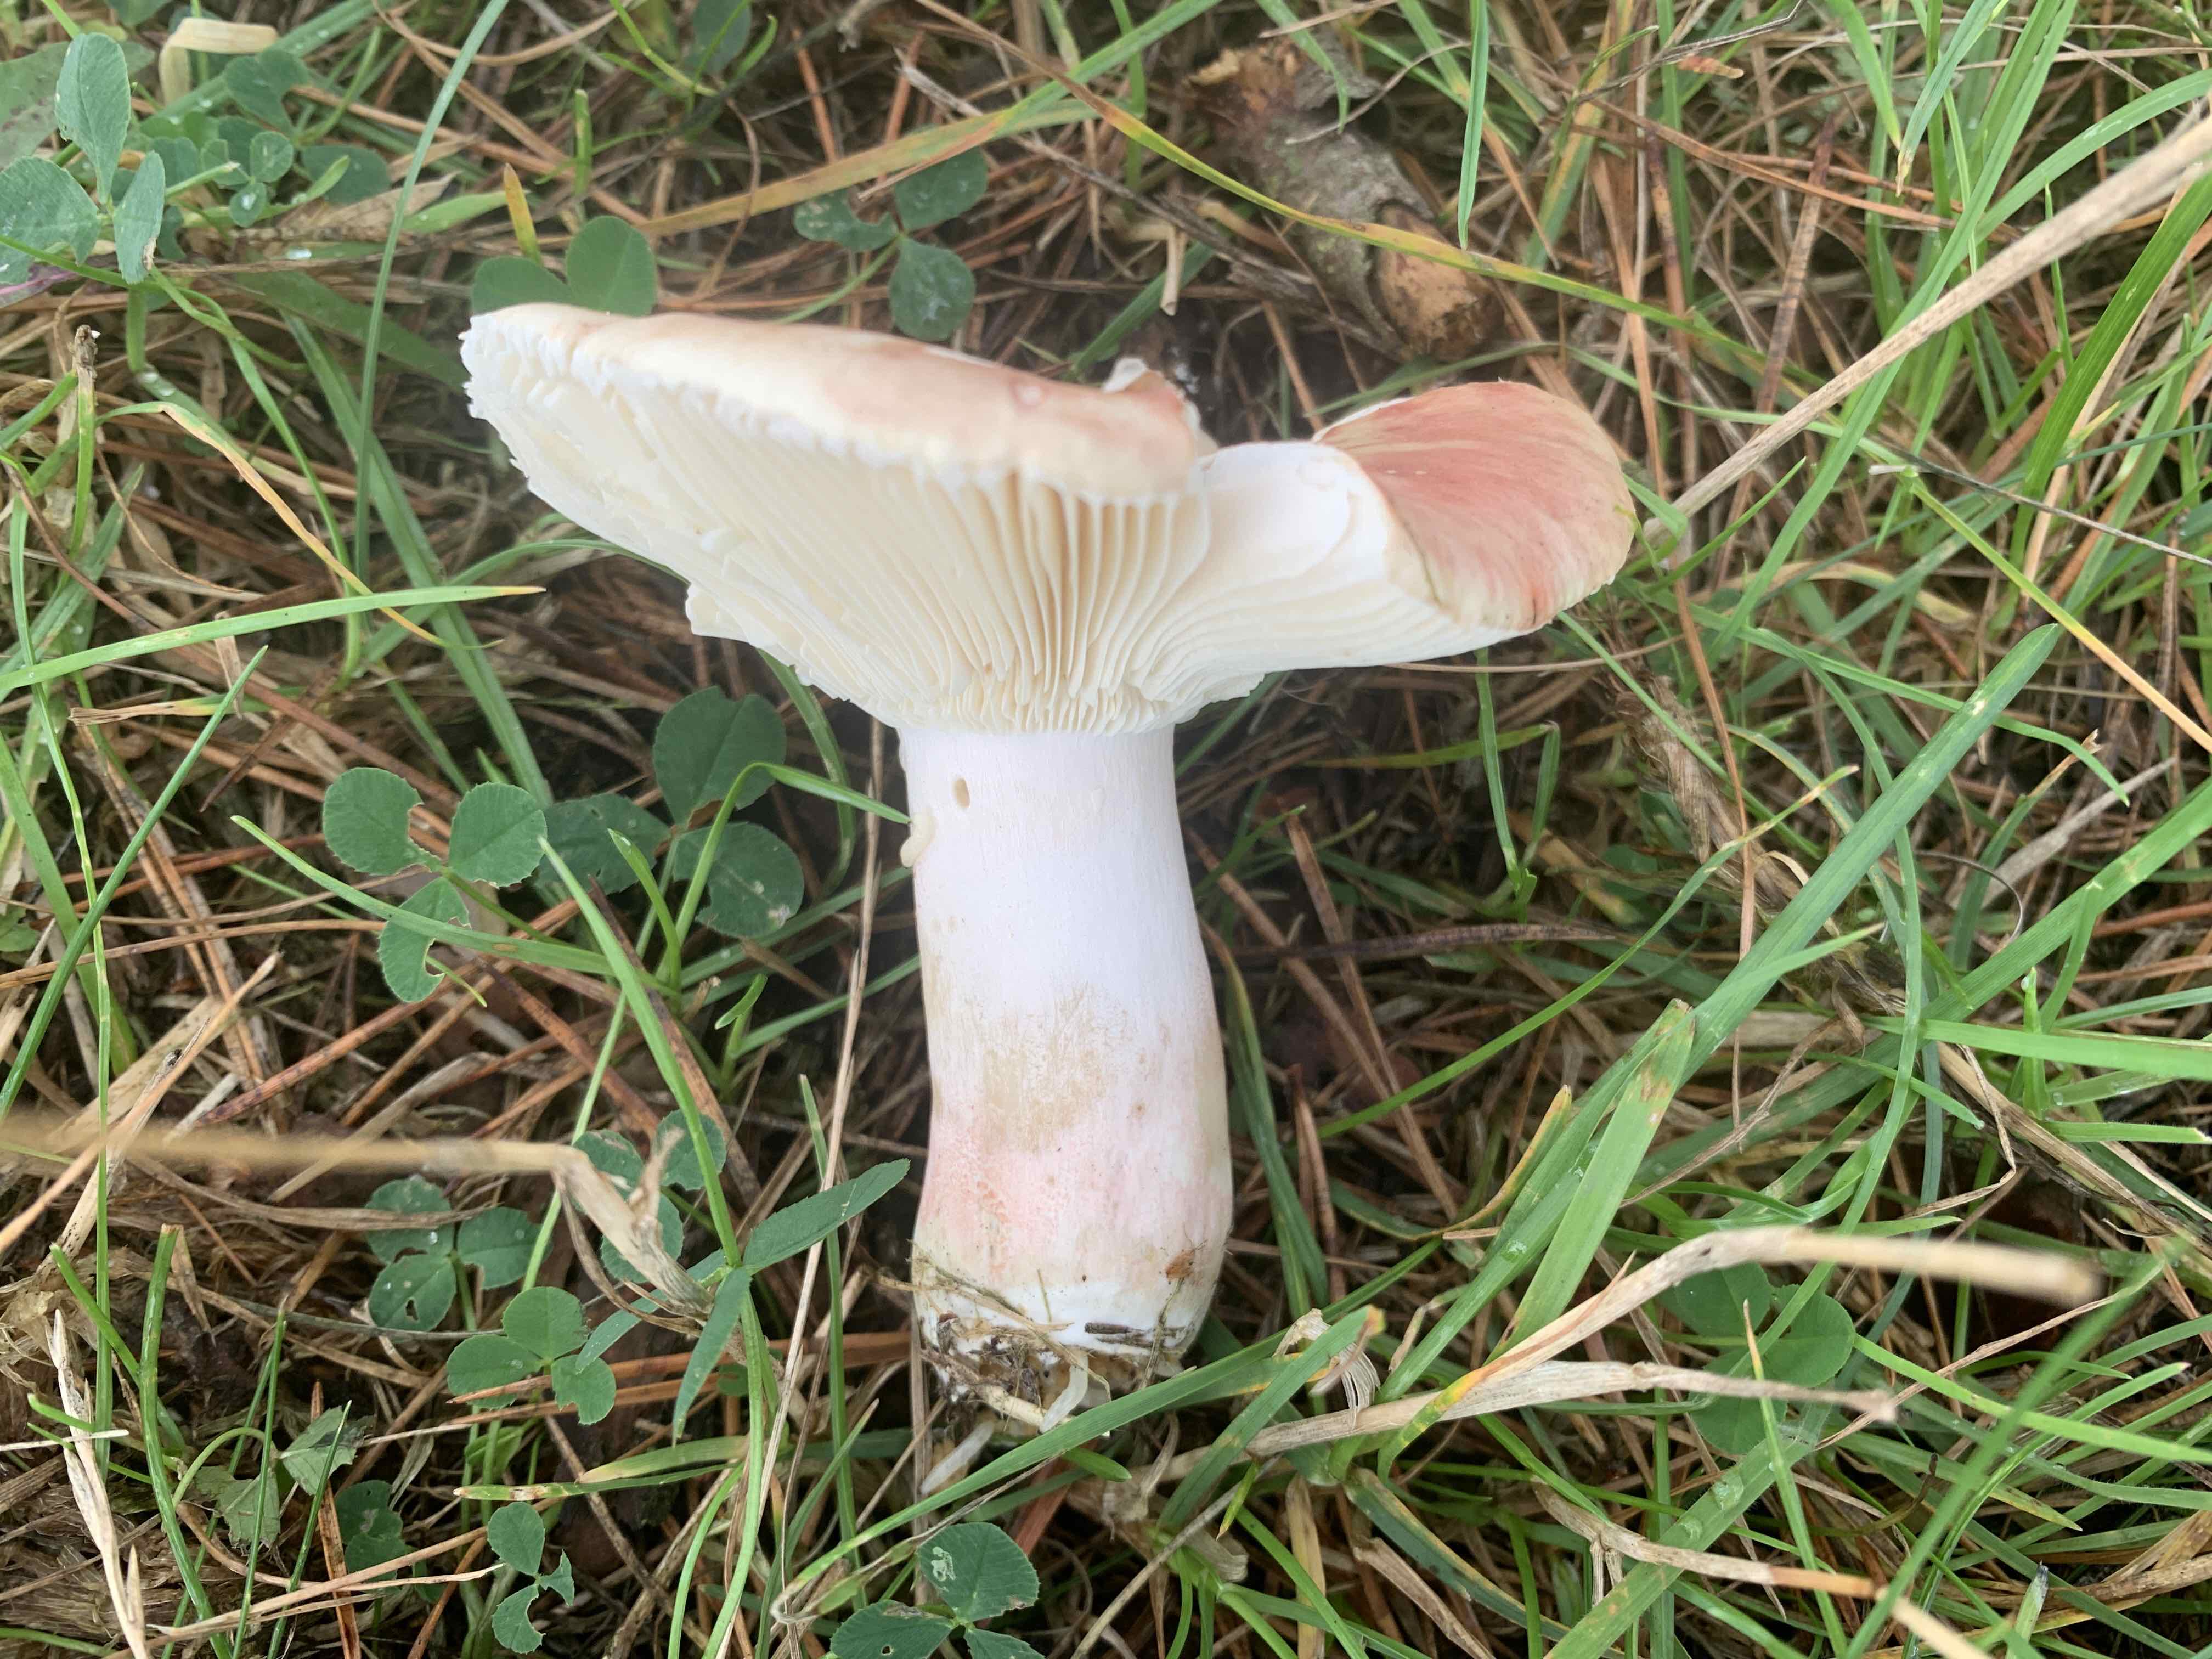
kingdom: Fungi
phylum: Basidiomycota
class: Agaricomycetes
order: Russulales
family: Russulaceae
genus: Russula
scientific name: Russula depallens
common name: falmende skørhat
